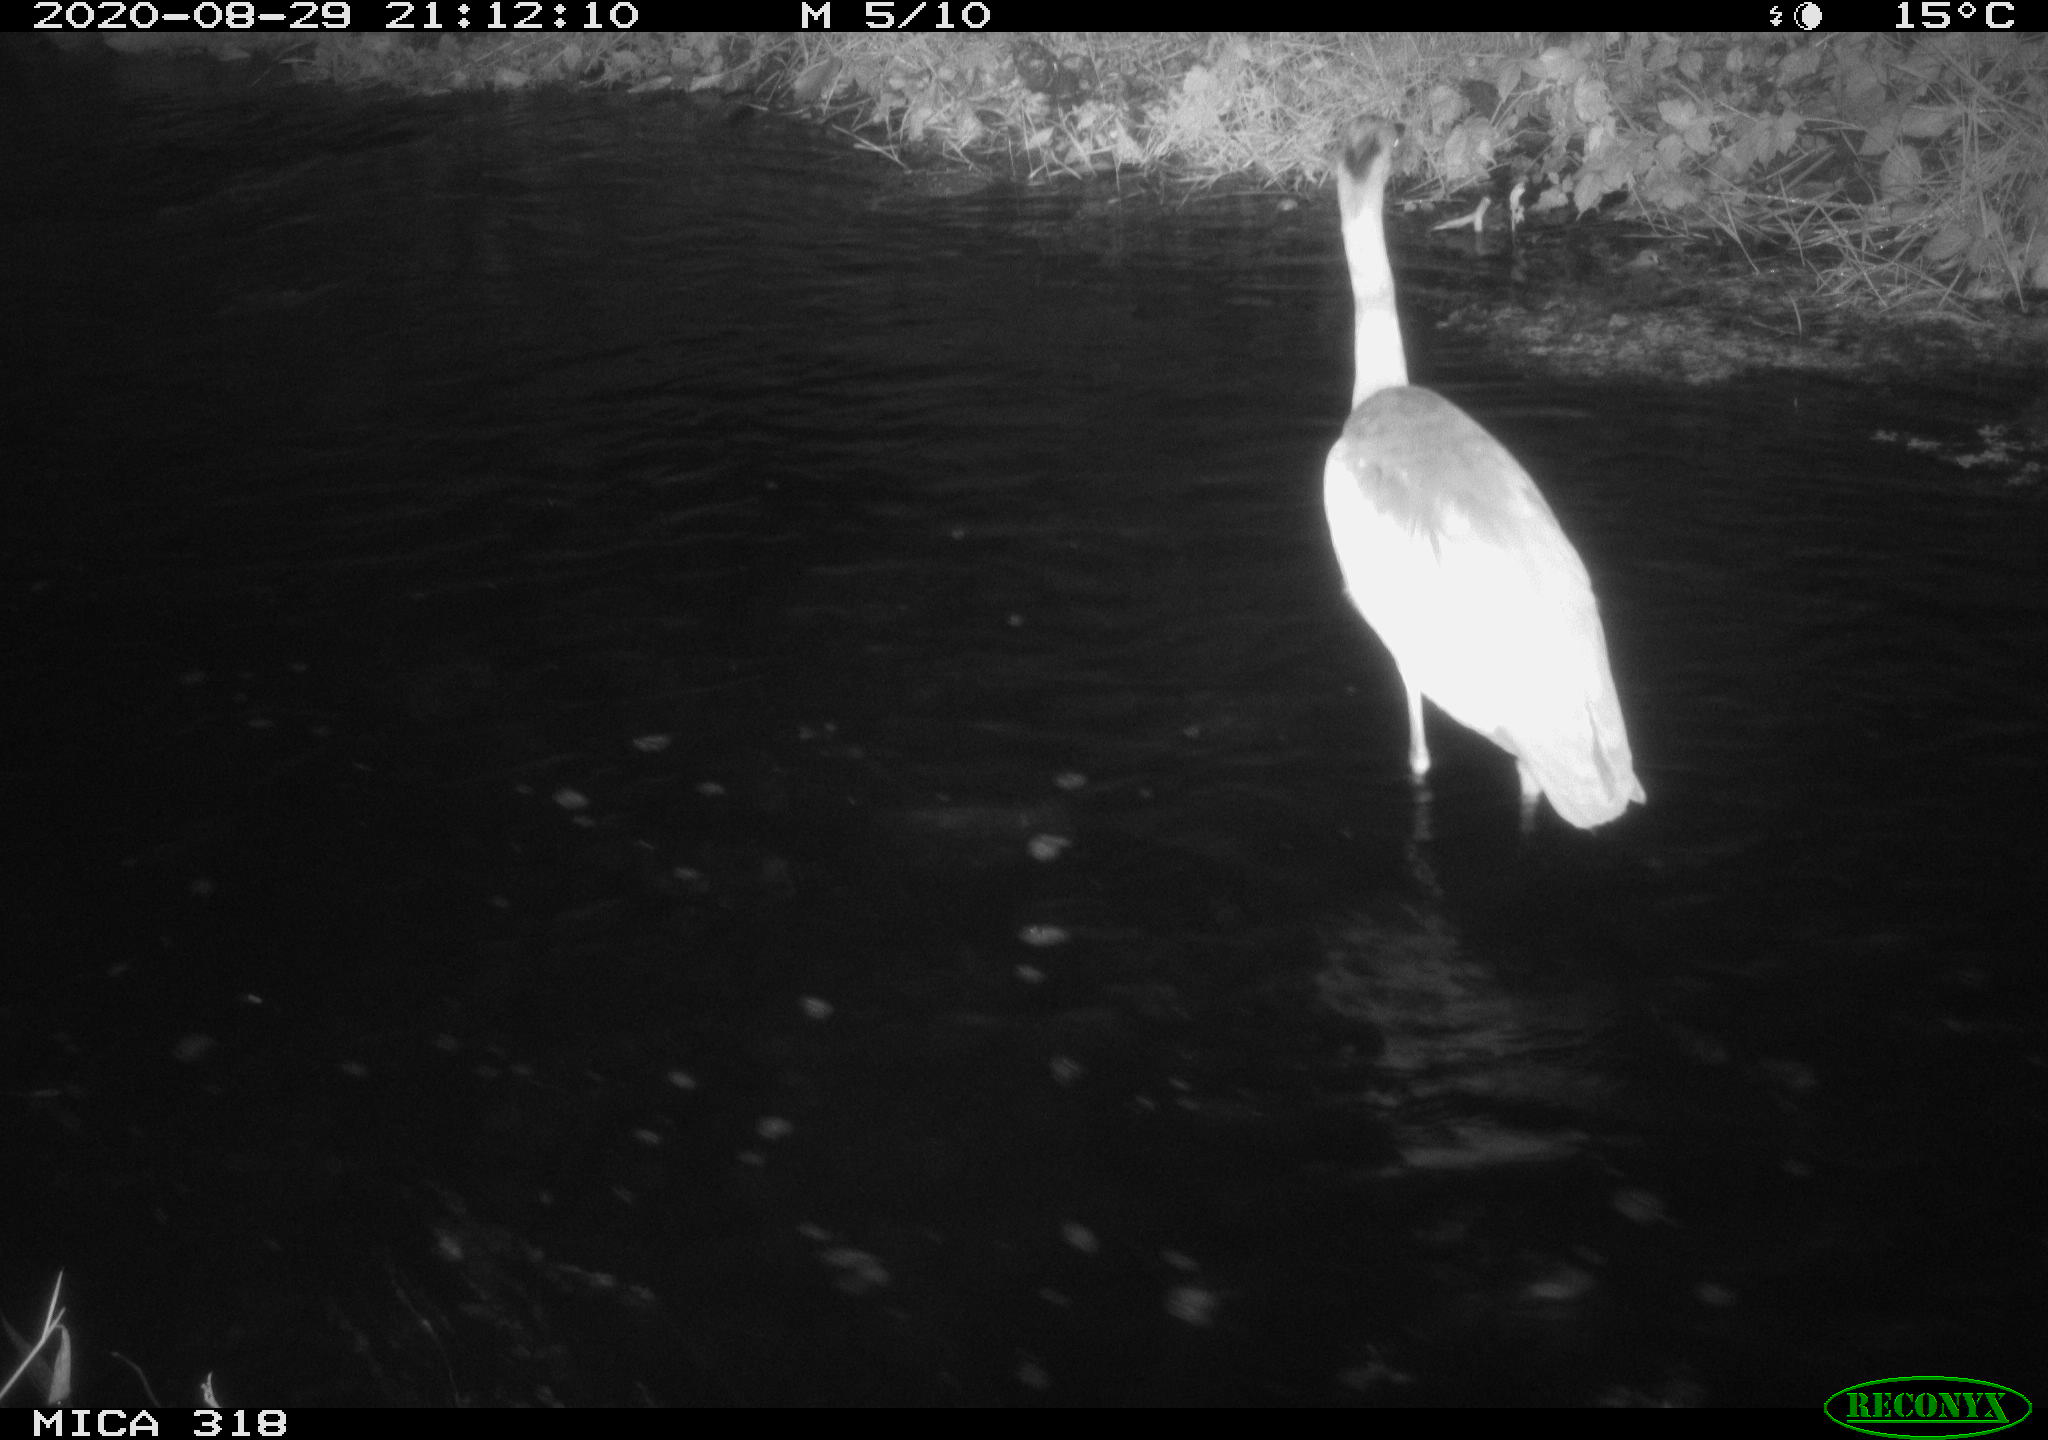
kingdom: Animalia
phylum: Chordata
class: Aves
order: Pelecaniformes
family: Ardeidae
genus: Ardea
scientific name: Ardea cinerea
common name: Grey heron
